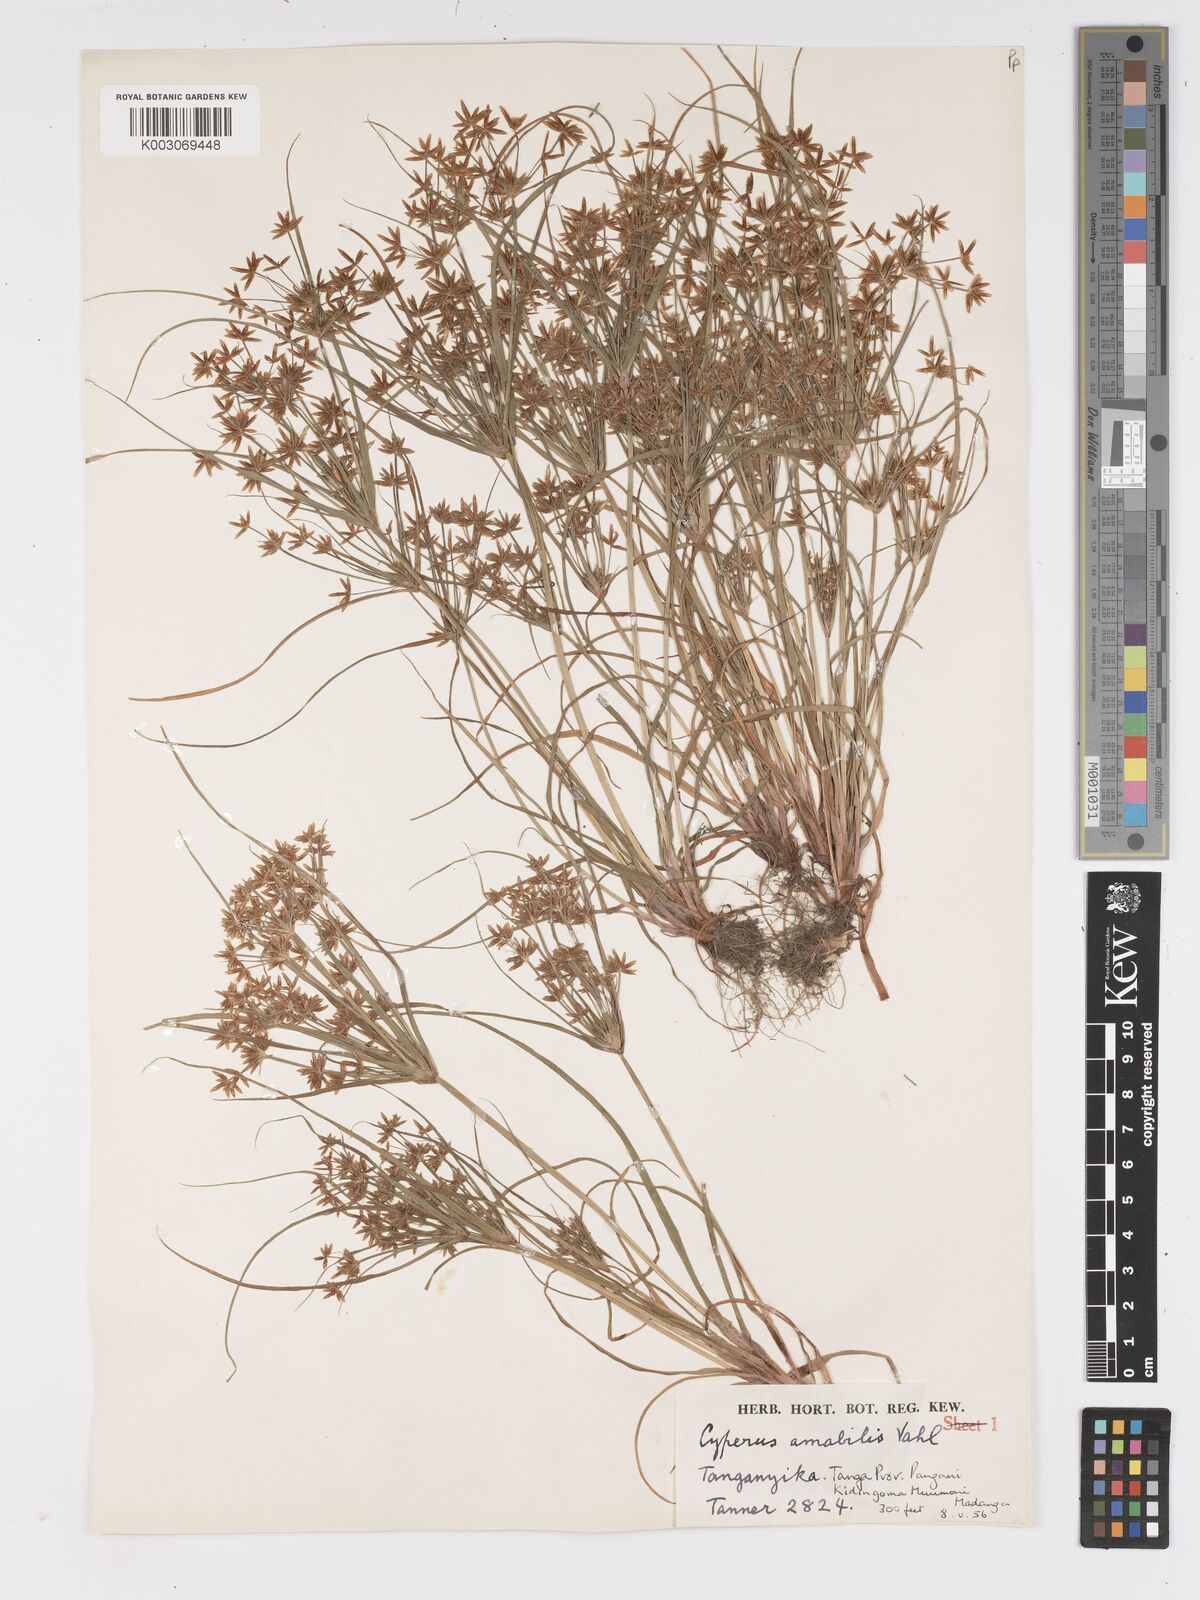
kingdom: Plantae
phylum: Tracheophyta
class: Liliopsida
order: Poales
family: Cyperaceae
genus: Cyperus
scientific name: Cyperus amabilis
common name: Foothill flat sedge
